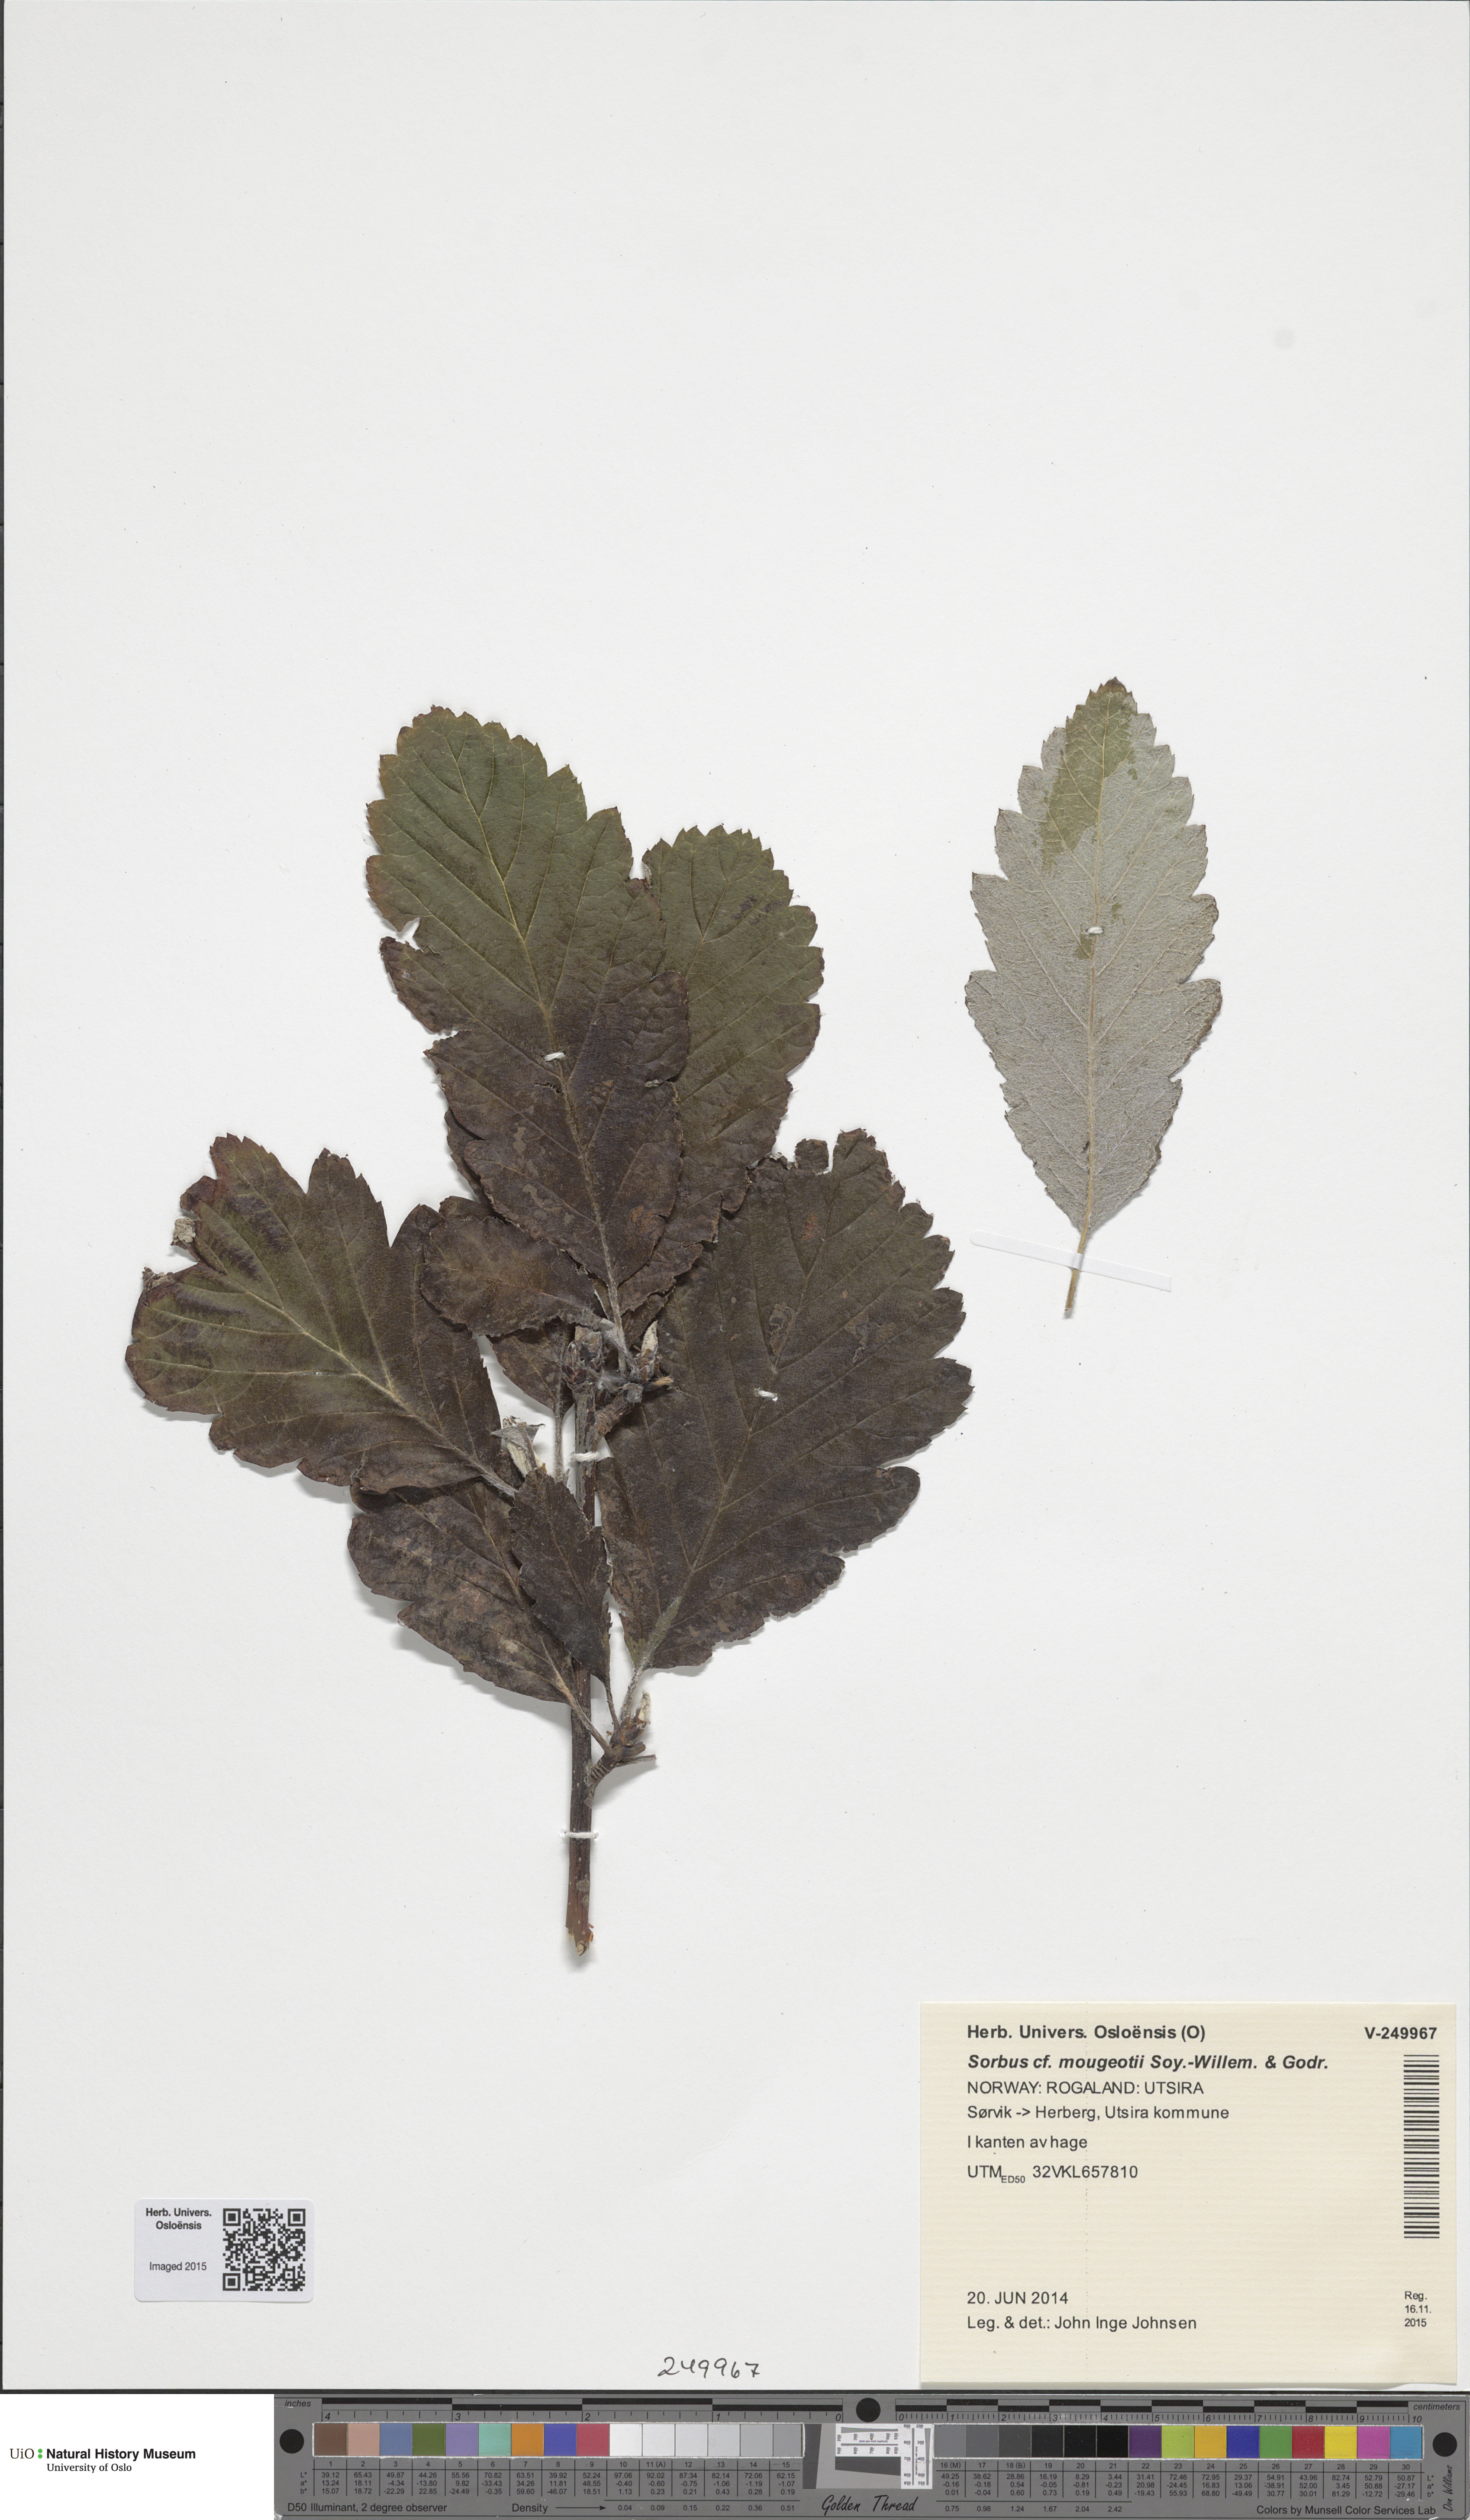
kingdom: Plantae
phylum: Tracheophyta
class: Magnoliopsida
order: Rosales
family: Rosaceae
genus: Hedlundia
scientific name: Hedlundia subsimilis
